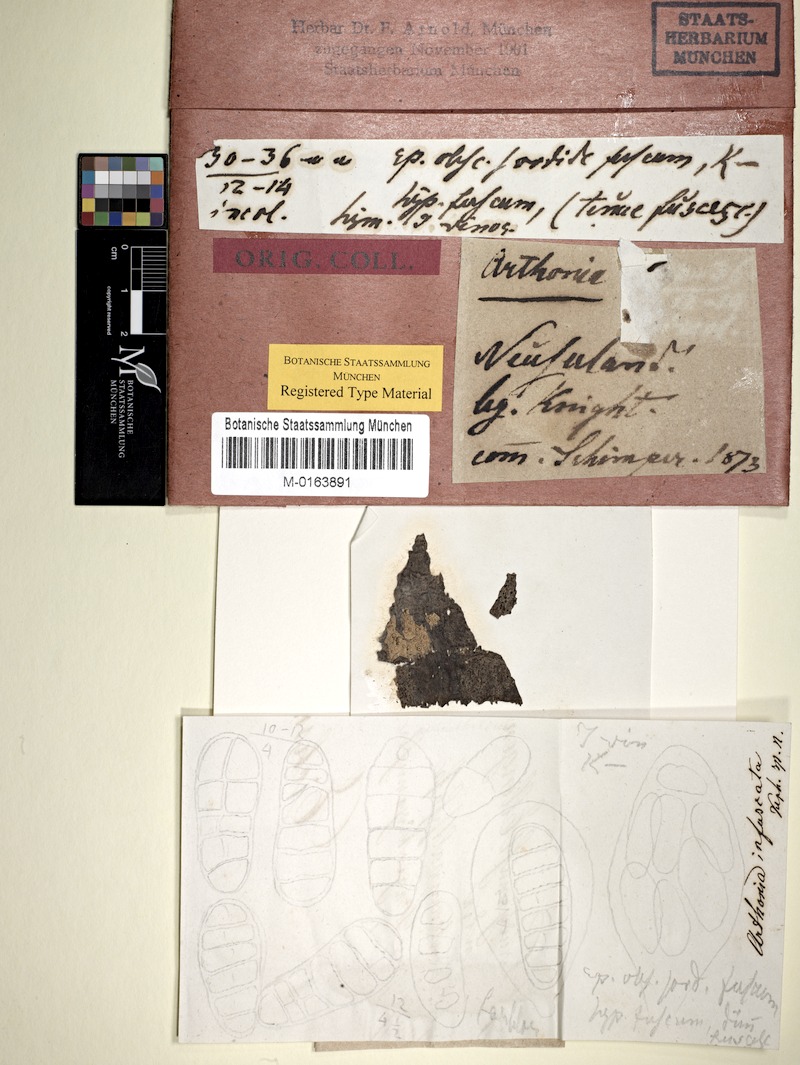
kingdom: Fungi
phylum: Ascomycota
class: Arthoniomycetes
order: Arthoniales
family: Arthoniaceae
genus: Arthothelium
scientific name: Arthothelium infuscatum
